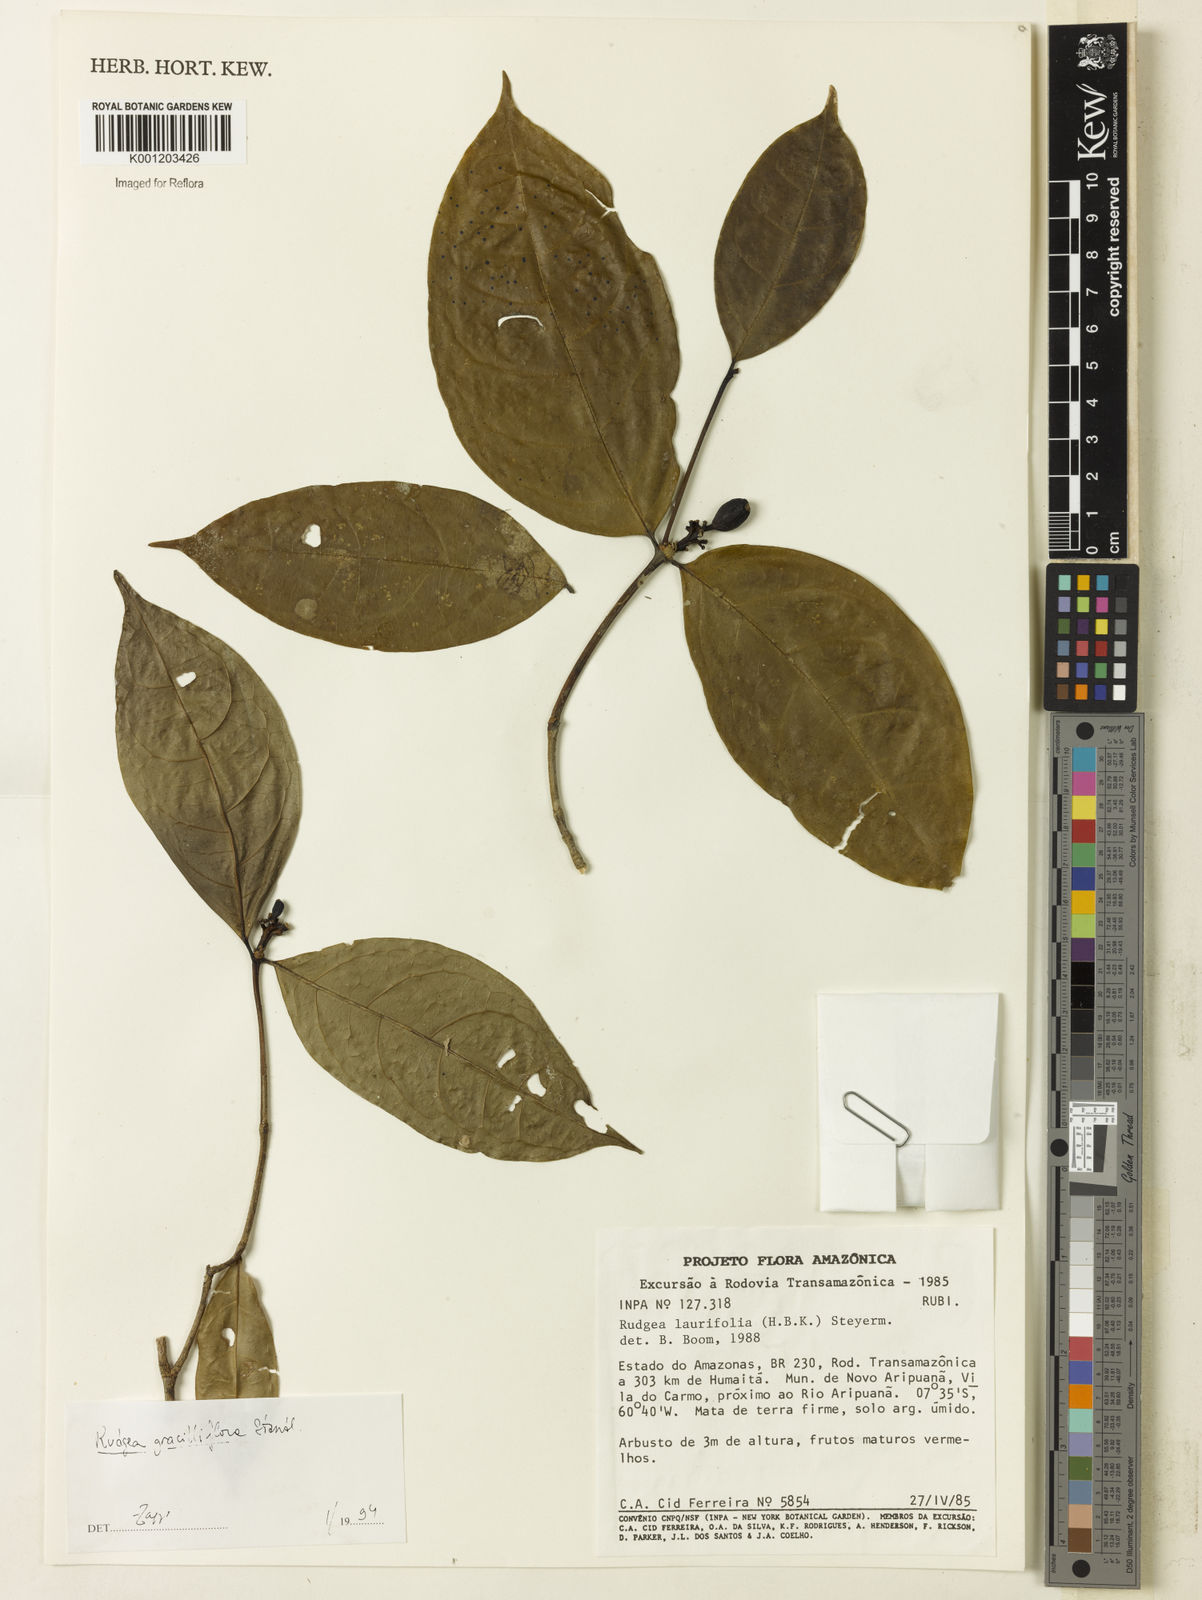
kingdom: Plantae
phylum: Tracheophyta
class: Magnoliopsida
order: Gentianales
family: Rubiaceae
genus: Rudgea
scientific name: Rudgea graciliflora
